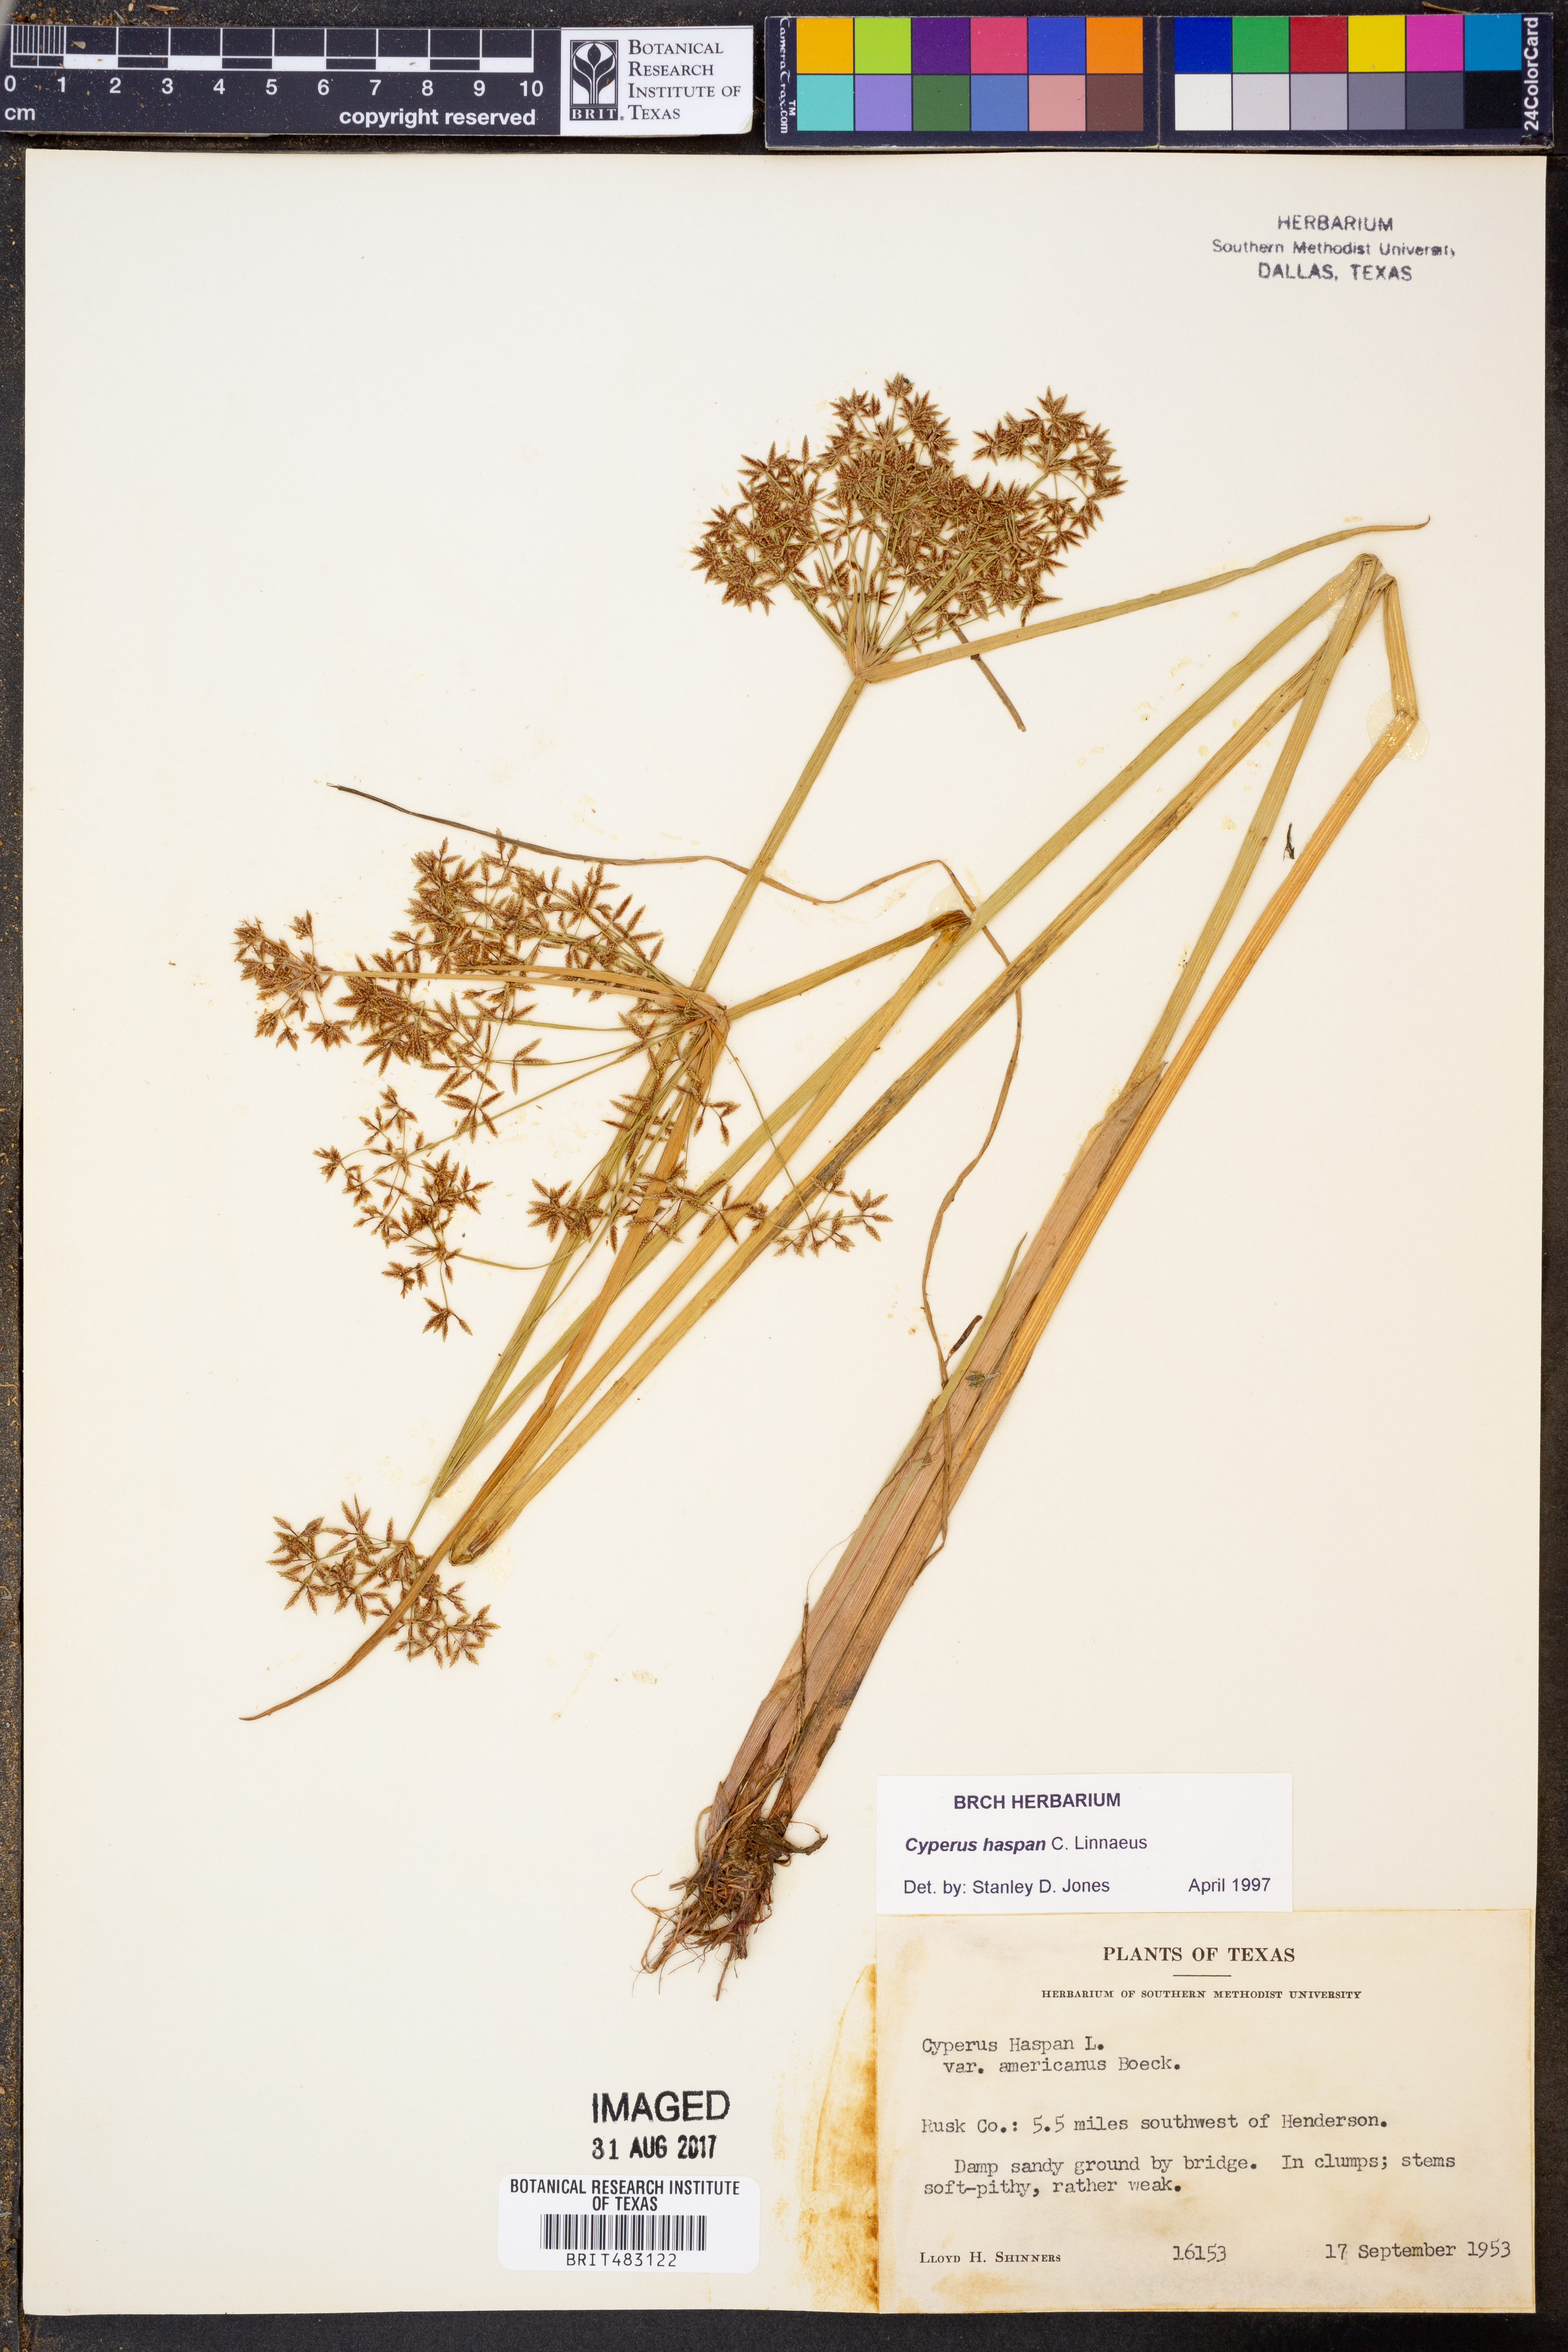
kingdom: Plantae
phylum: Tracheophyta
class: Liliopsida
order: Poales
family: Cyperaceae
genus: Cyperus
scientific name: Cyperus haspan
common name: Haspan flatsedge
